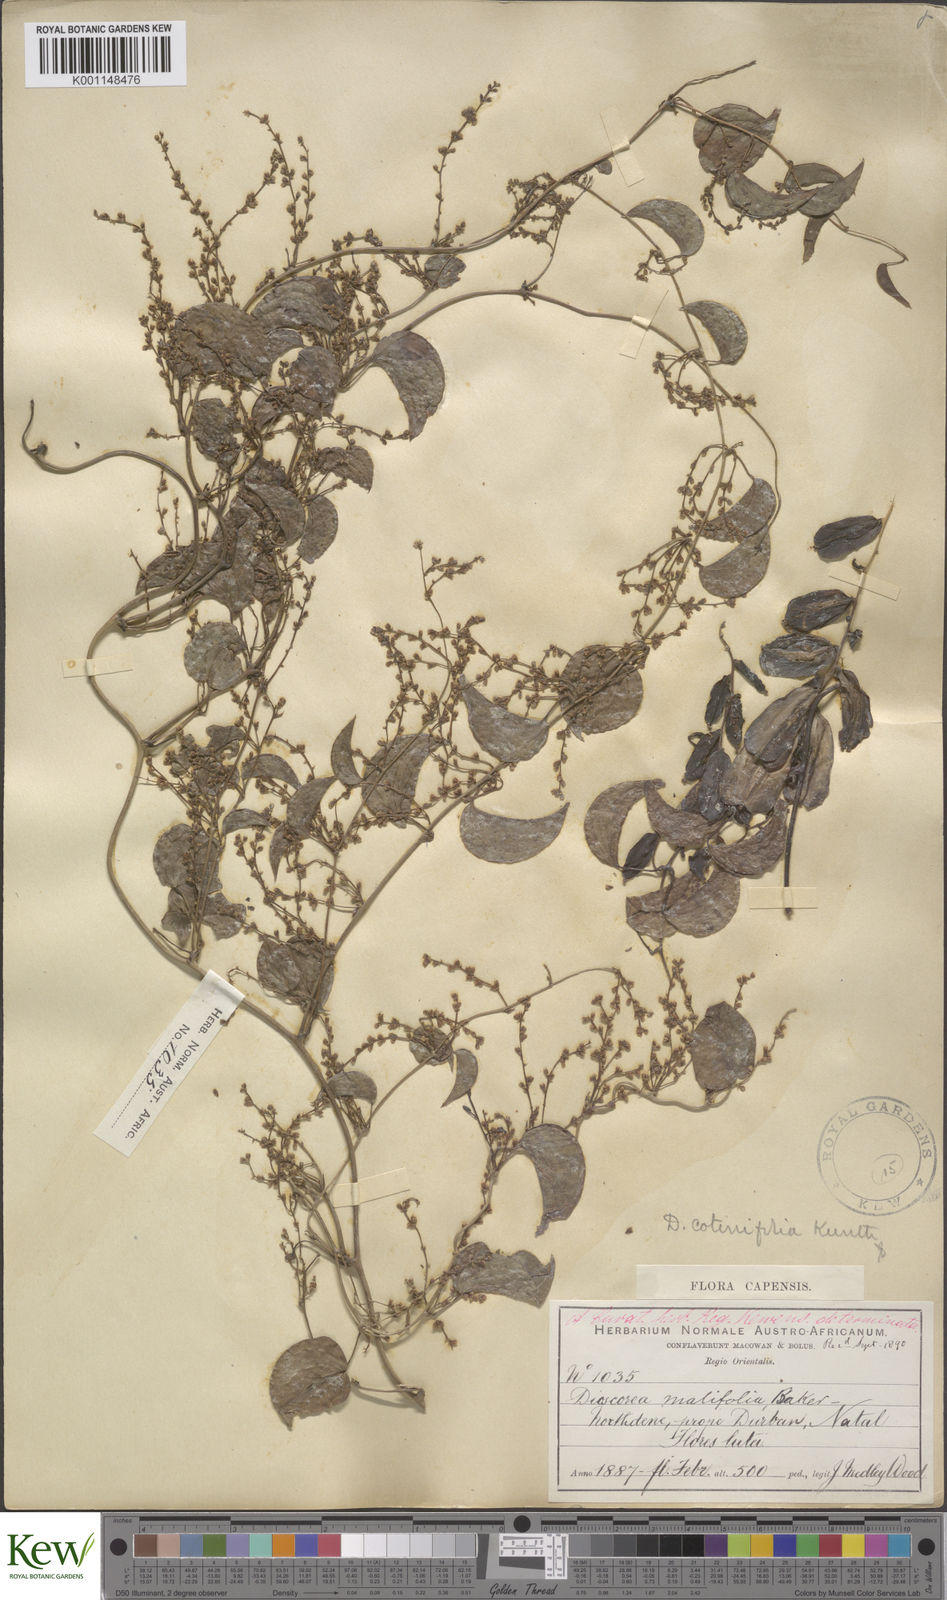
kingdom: Plantae
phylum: Tracheophyta
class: Liliopsida
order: Dioscoreales
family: Dioscoreaceae
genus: Dioscorea
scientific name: Dioscorea cotinifolia
